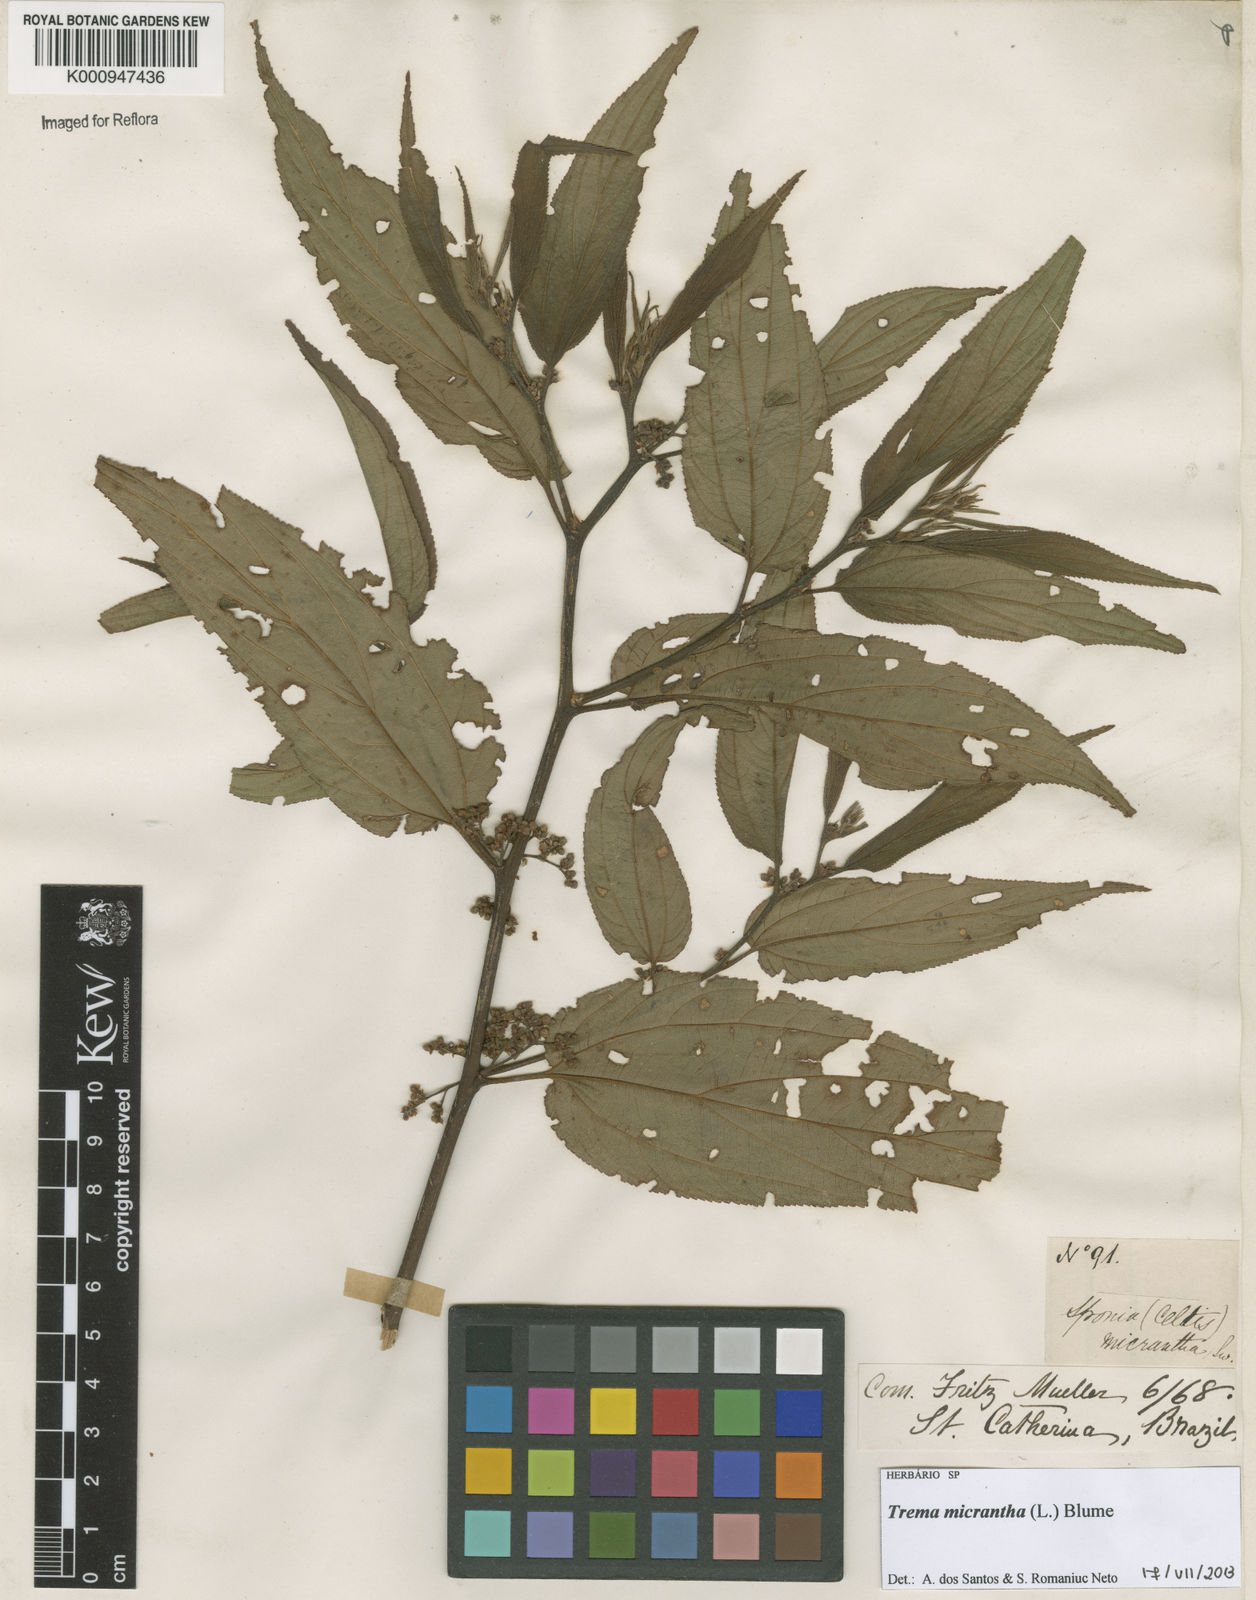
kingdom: Plantae
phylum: Tracheophyta
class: Magnoliopsida
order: Rosales
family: Cannabaceae
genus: Trema
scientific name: Trema micranthum
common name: Jamaican nettletree
